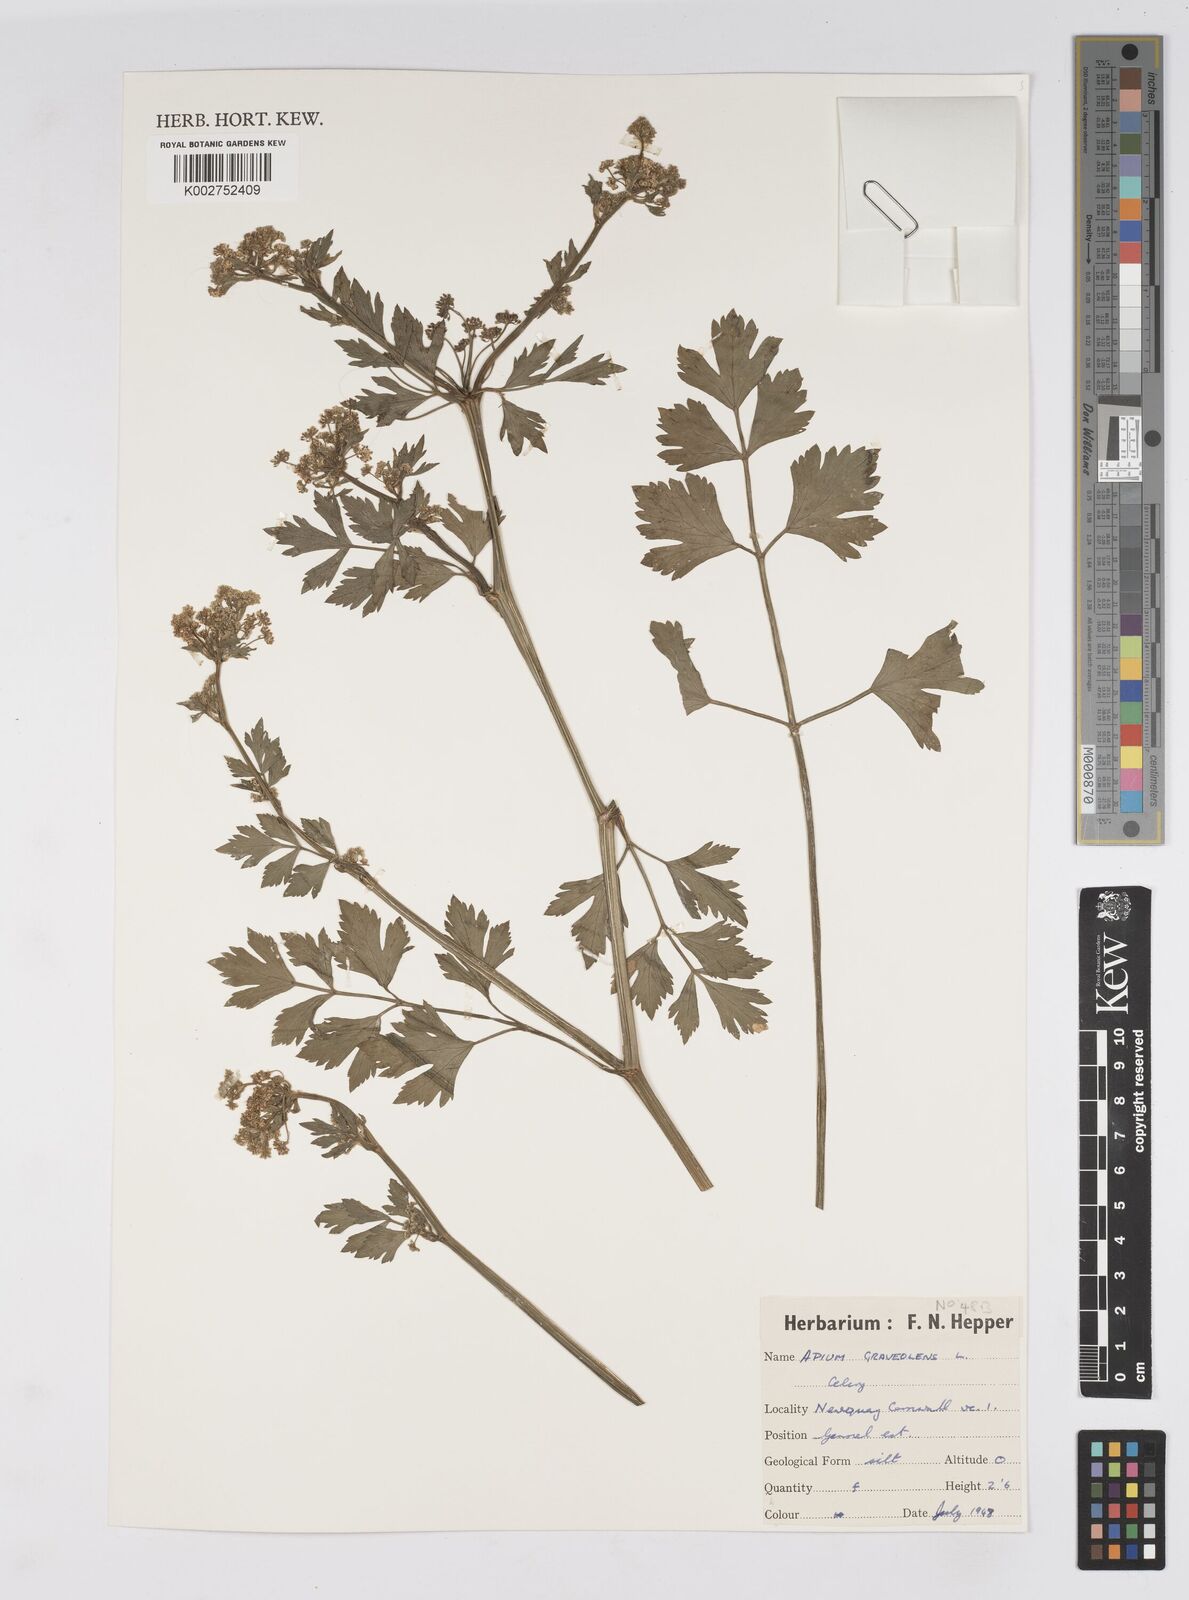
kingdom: Plantae
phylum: Tracheophyta
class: Magnoliopsida
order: Apiales
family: Apiaceae
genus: Apium
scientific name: Apium graveolens
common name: Wild celery
